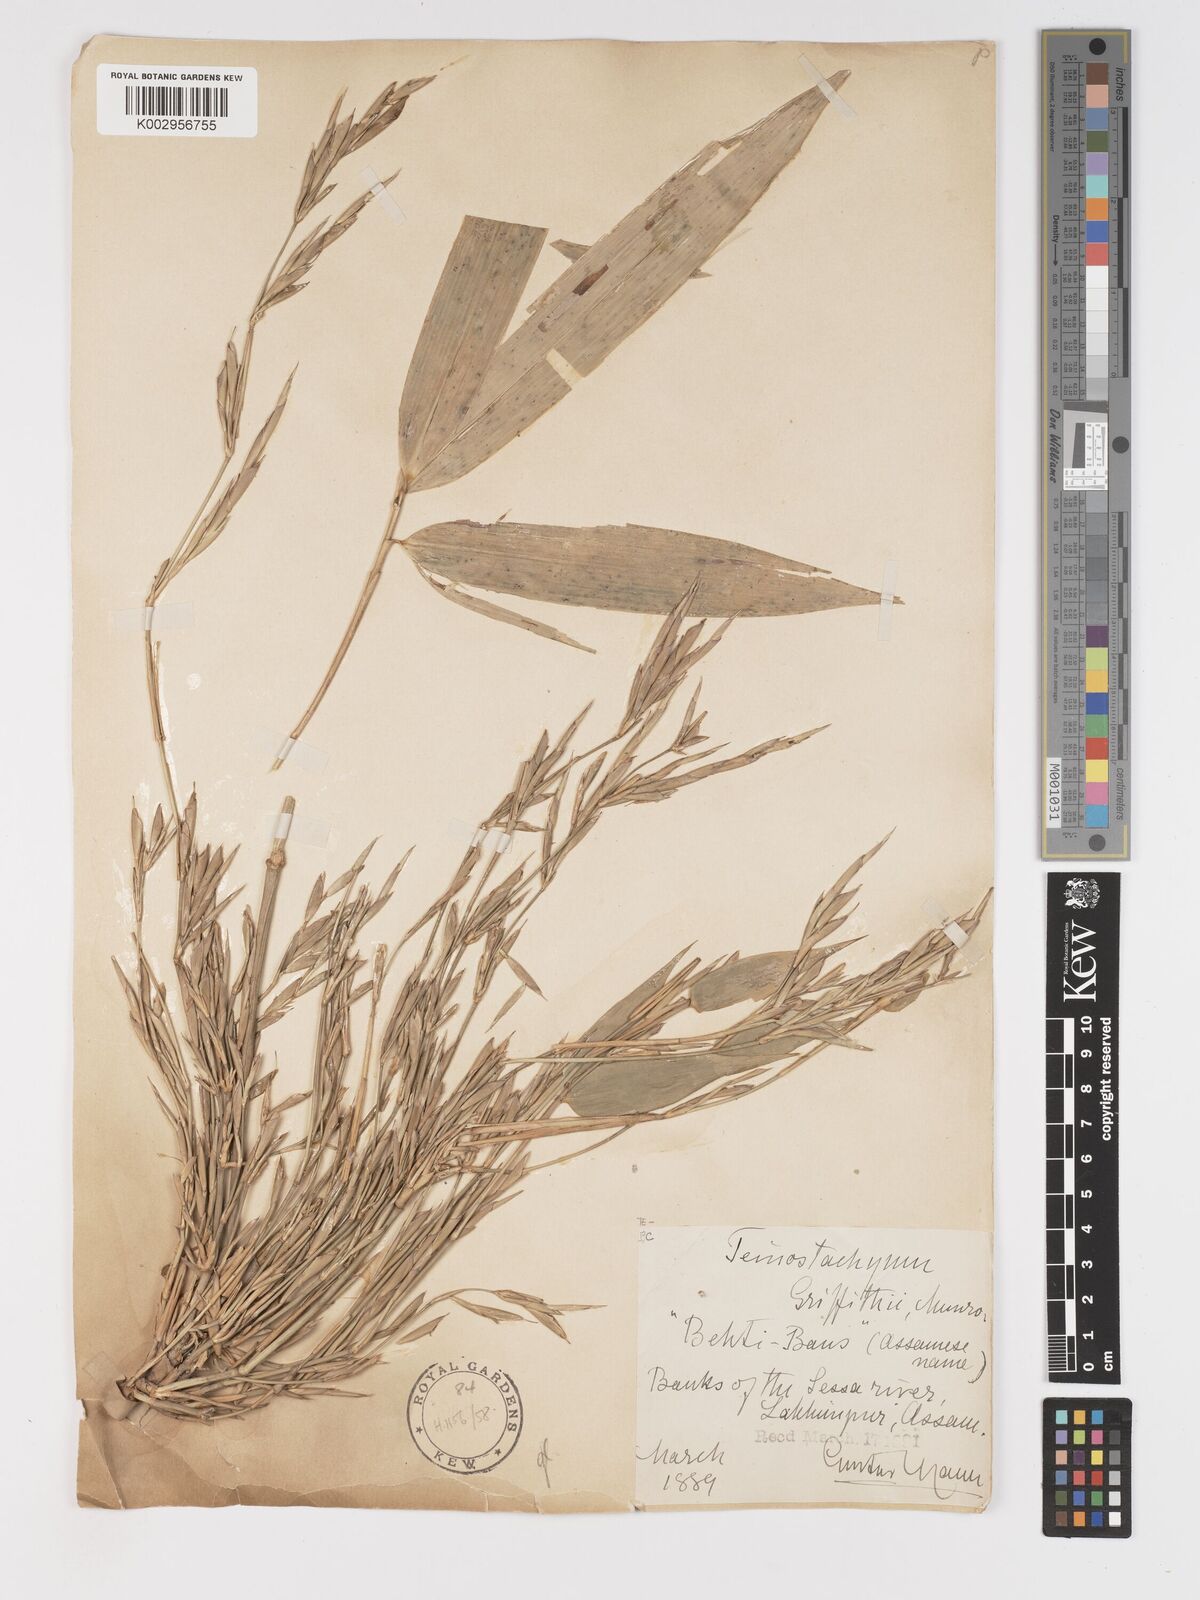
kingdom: Plantae
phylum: Tracheophyta
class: Liliopsida
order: Poales
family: Poaceae
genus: Schizostachyum
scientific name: Schizostachyum griffithii
